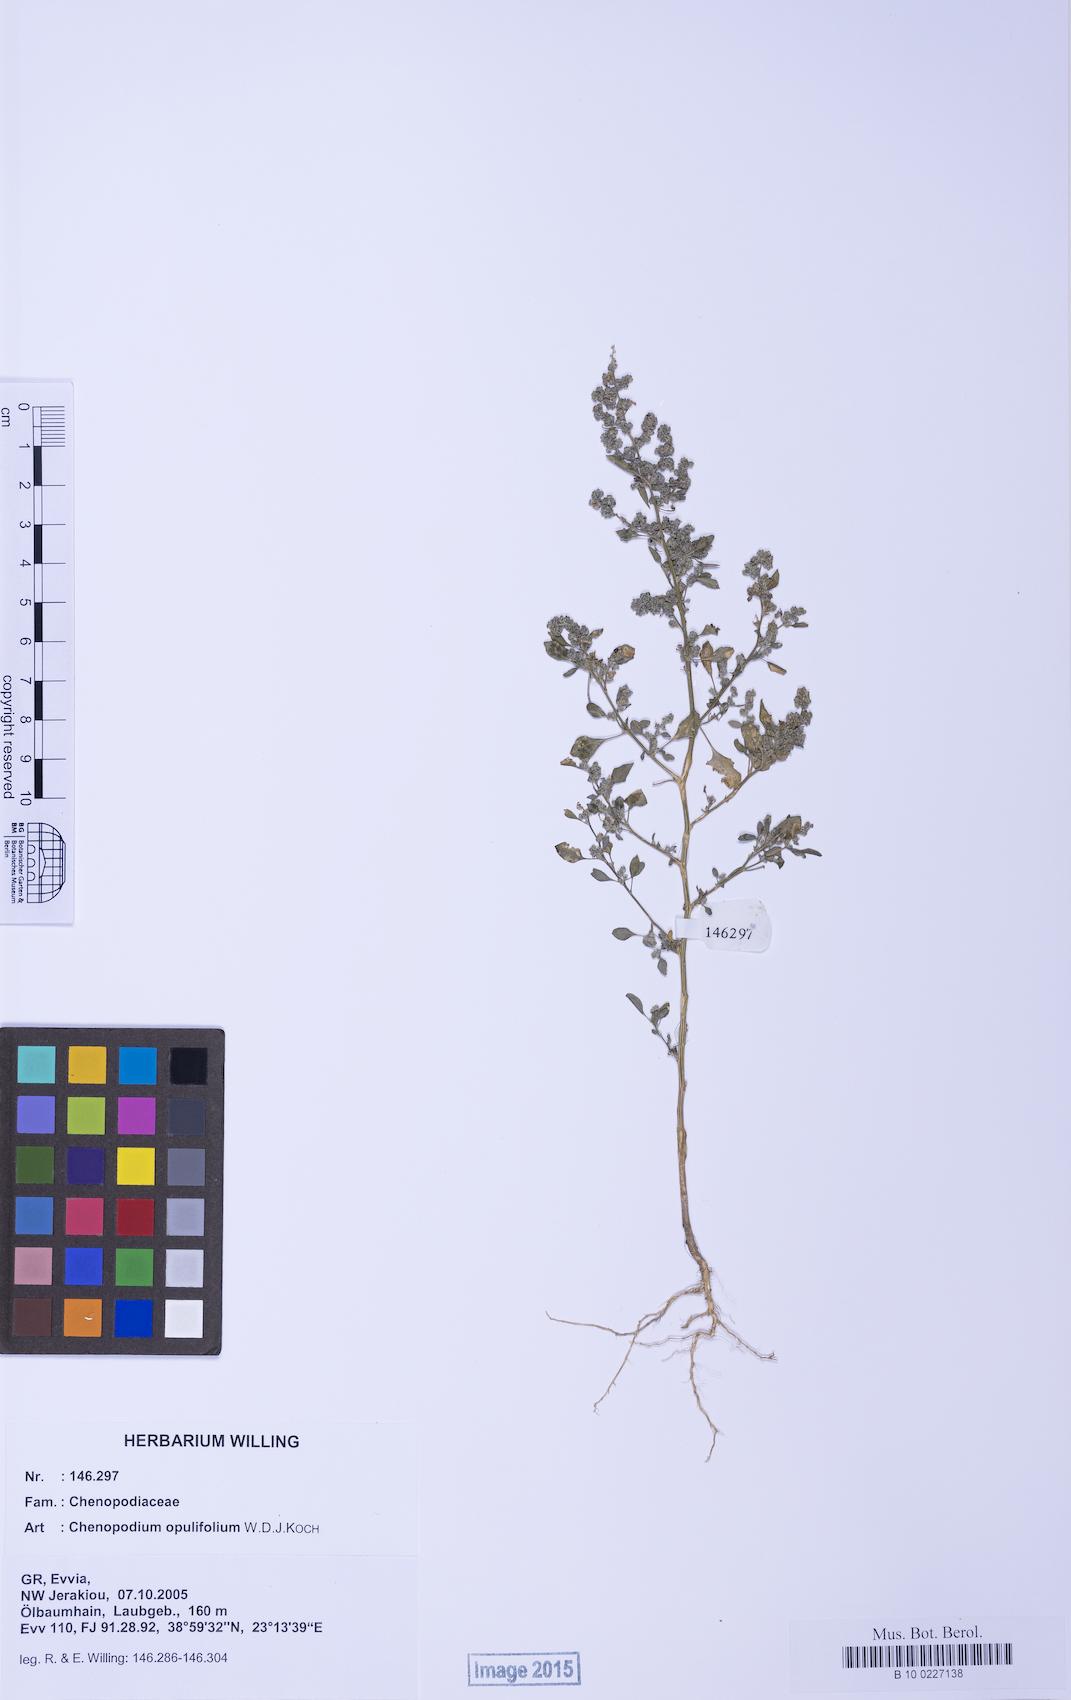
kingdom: Plantae
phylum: Tracheophyta
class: Magnoliopsida
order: Caryophyllales
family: Amaranthaceae
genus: Chenopodium
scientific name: Chenopodium opulifolium
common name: Grey goosefoot
